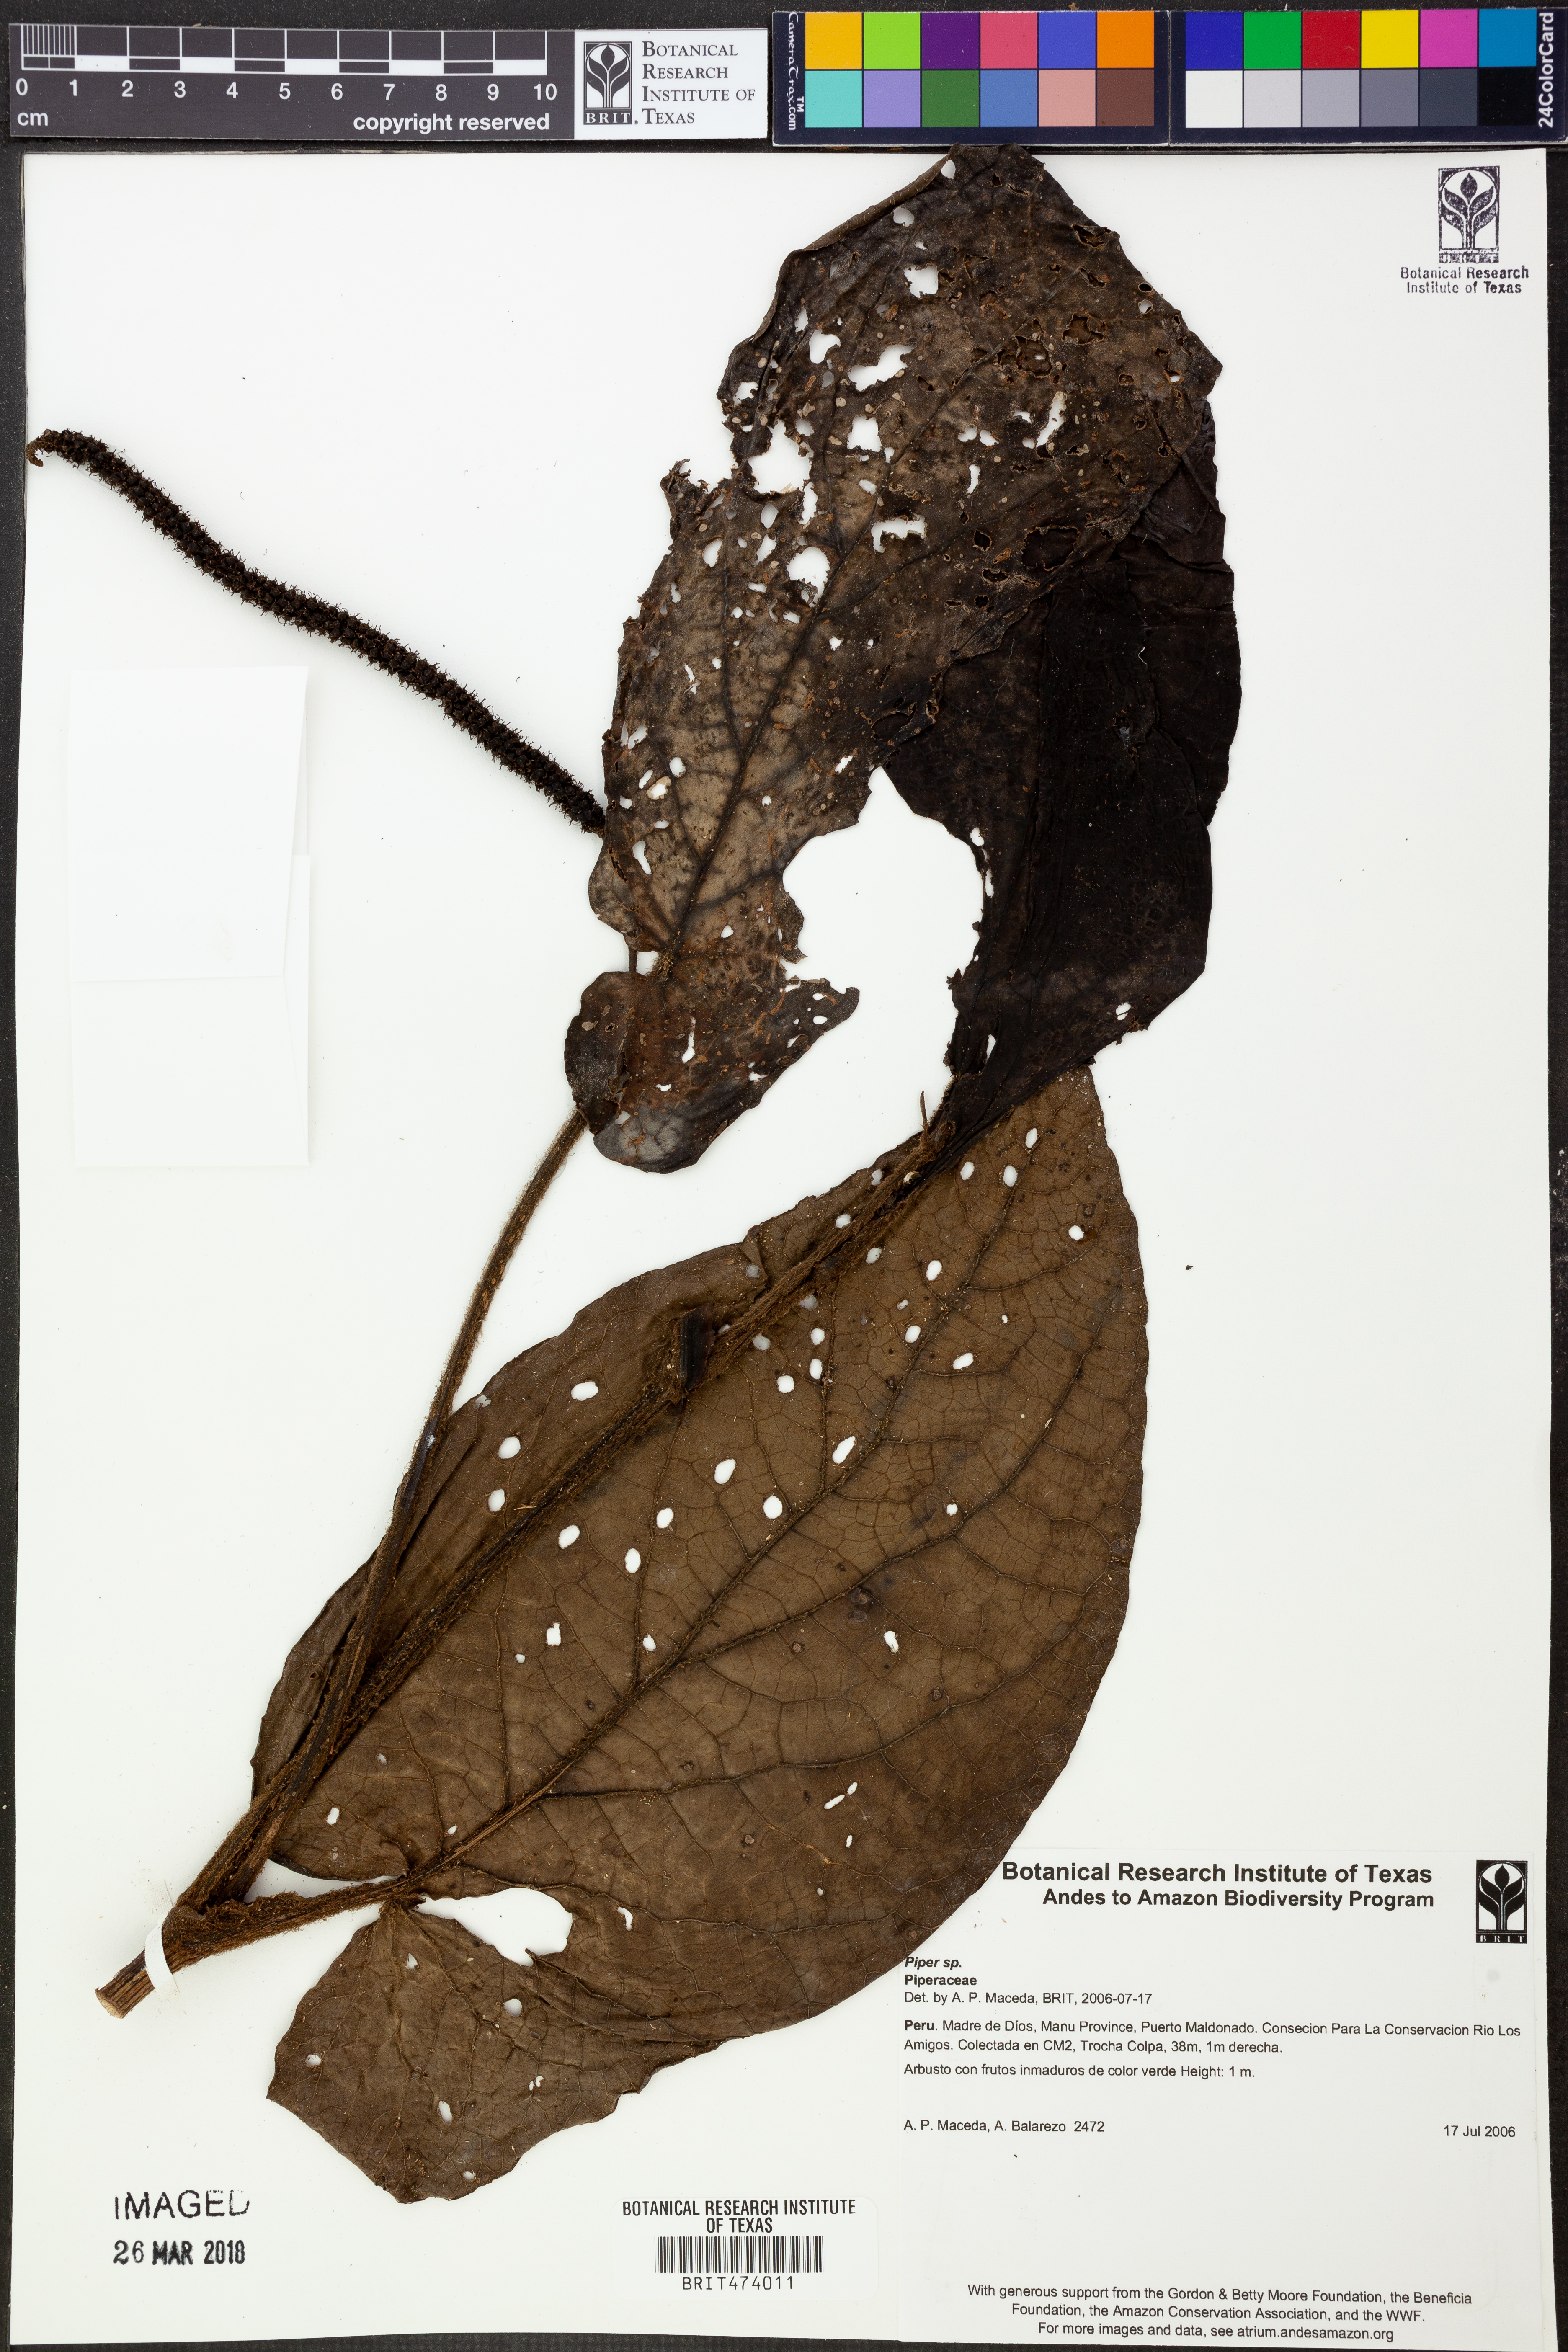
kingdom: Plantae
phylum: Tracheophyta
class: Magnoliopsida
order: Piperales
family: Piperaceae
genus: Piper
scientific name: Piper
